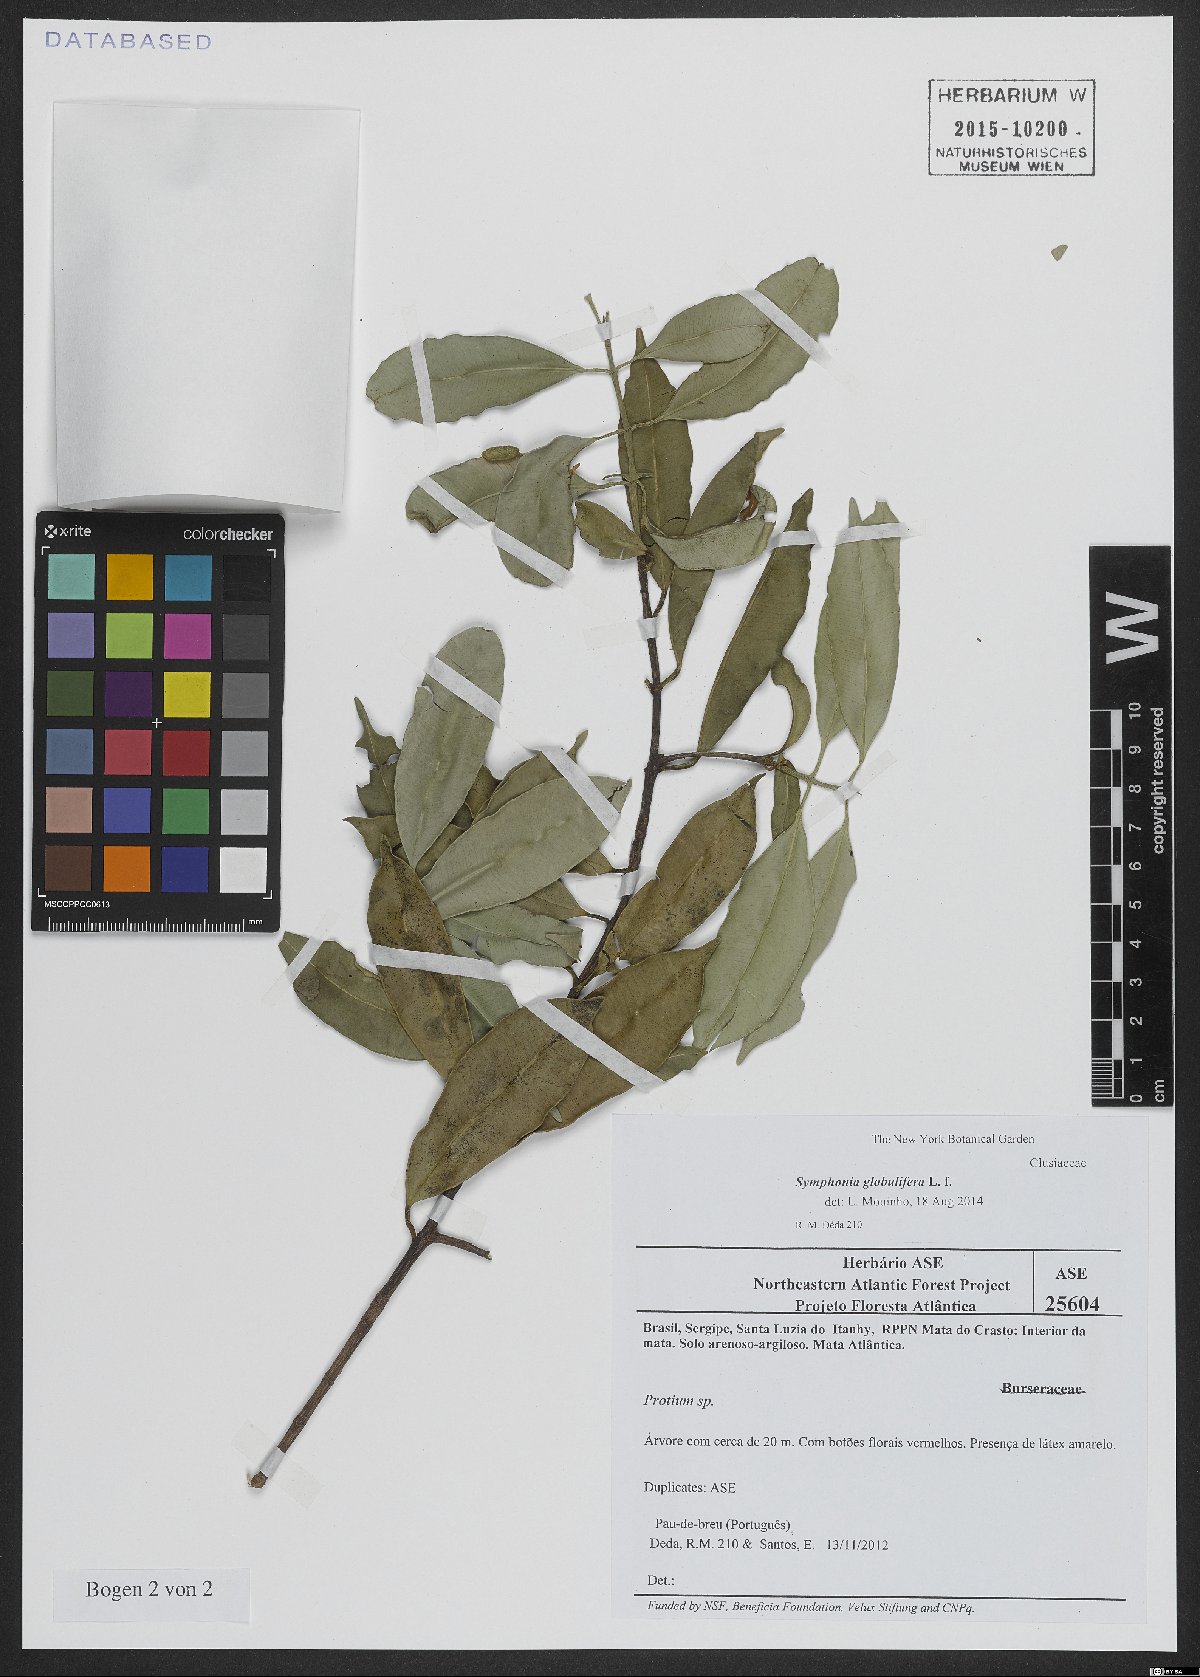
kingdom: Plantae
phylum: Tracheophyta
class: Magnoliopsida
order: Malpighiales
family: Clusiaceae
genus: Symphonia
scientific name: Symphonia globulifera
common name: Boarwood
